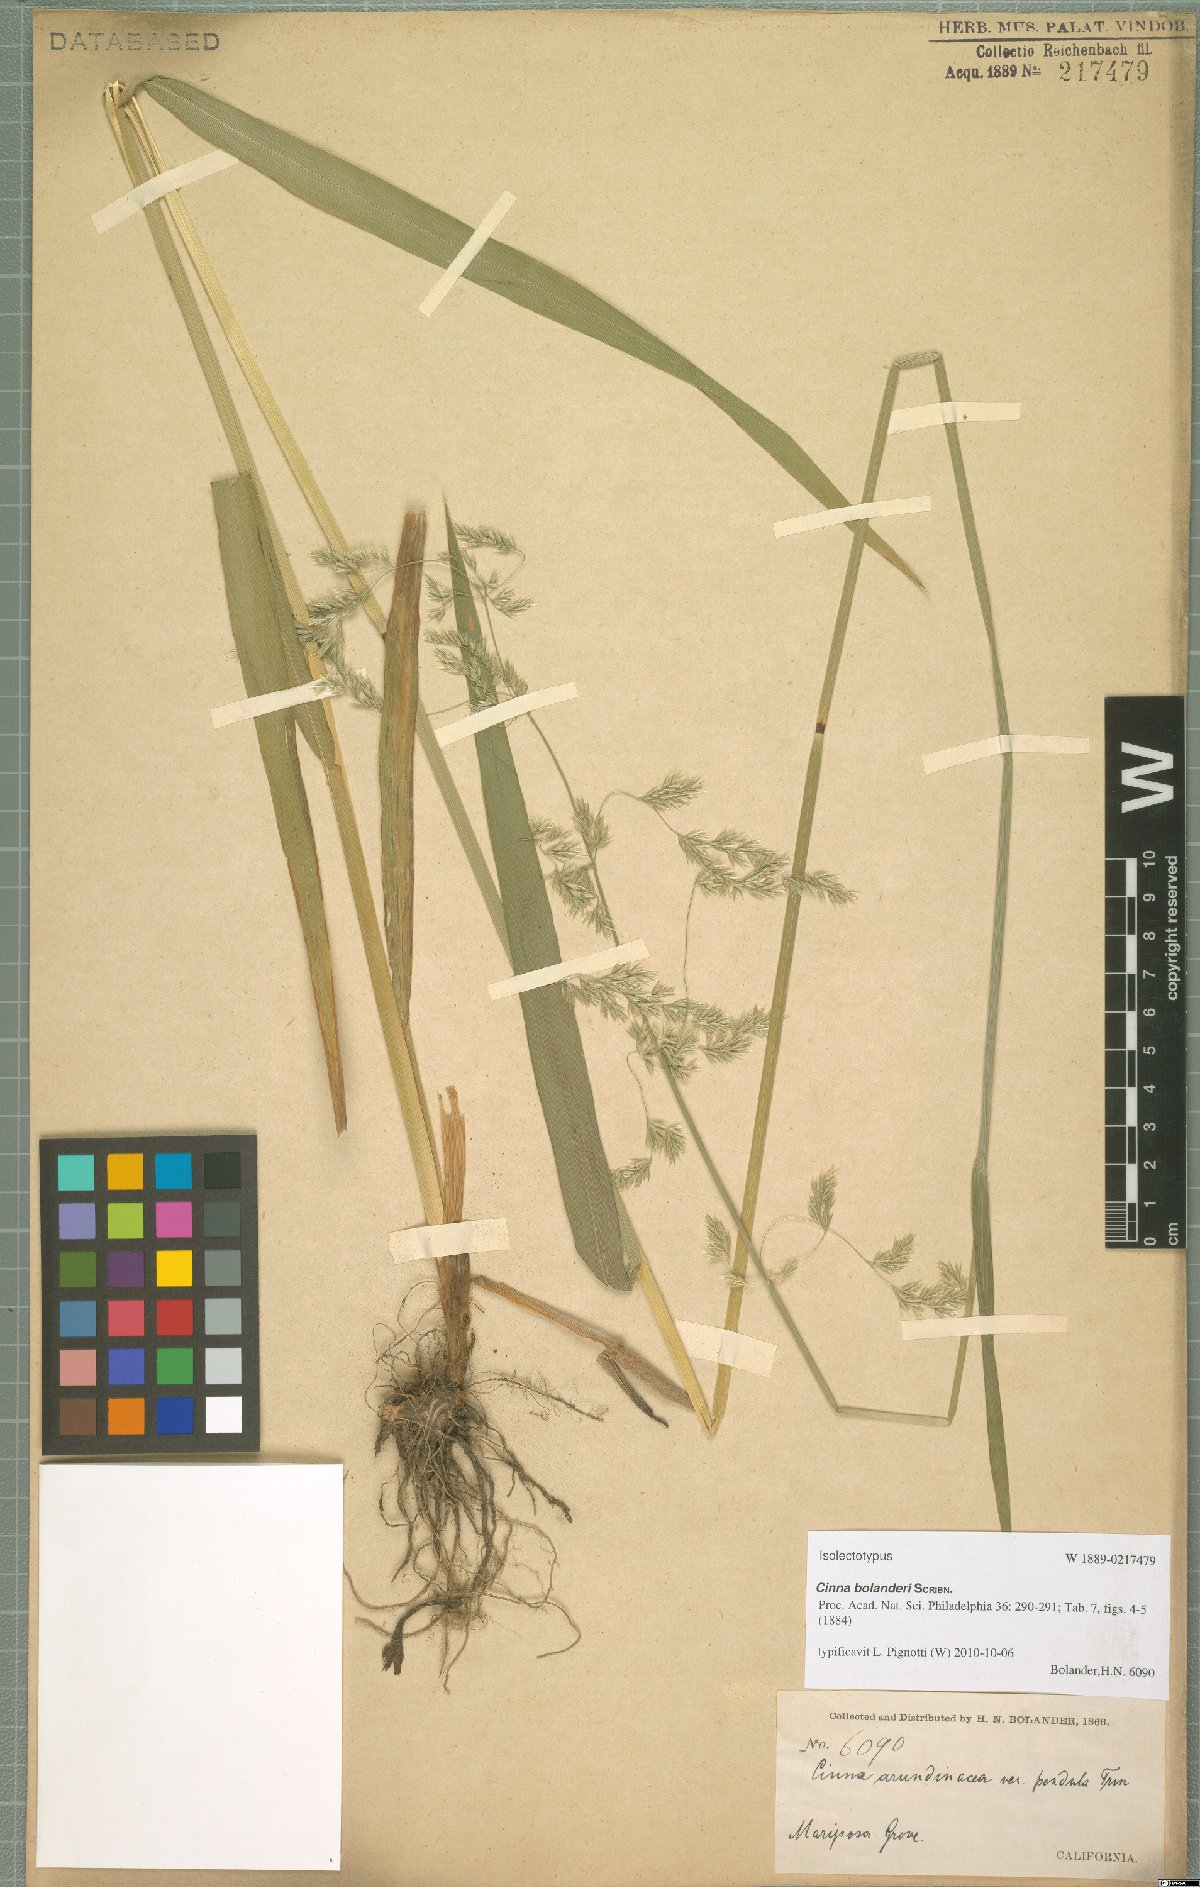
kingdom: Plantae
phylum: Tracheophyta
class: Liliopsida
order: Poales
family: Poaceae
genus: Cinna
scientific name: Cinna bolanderi
